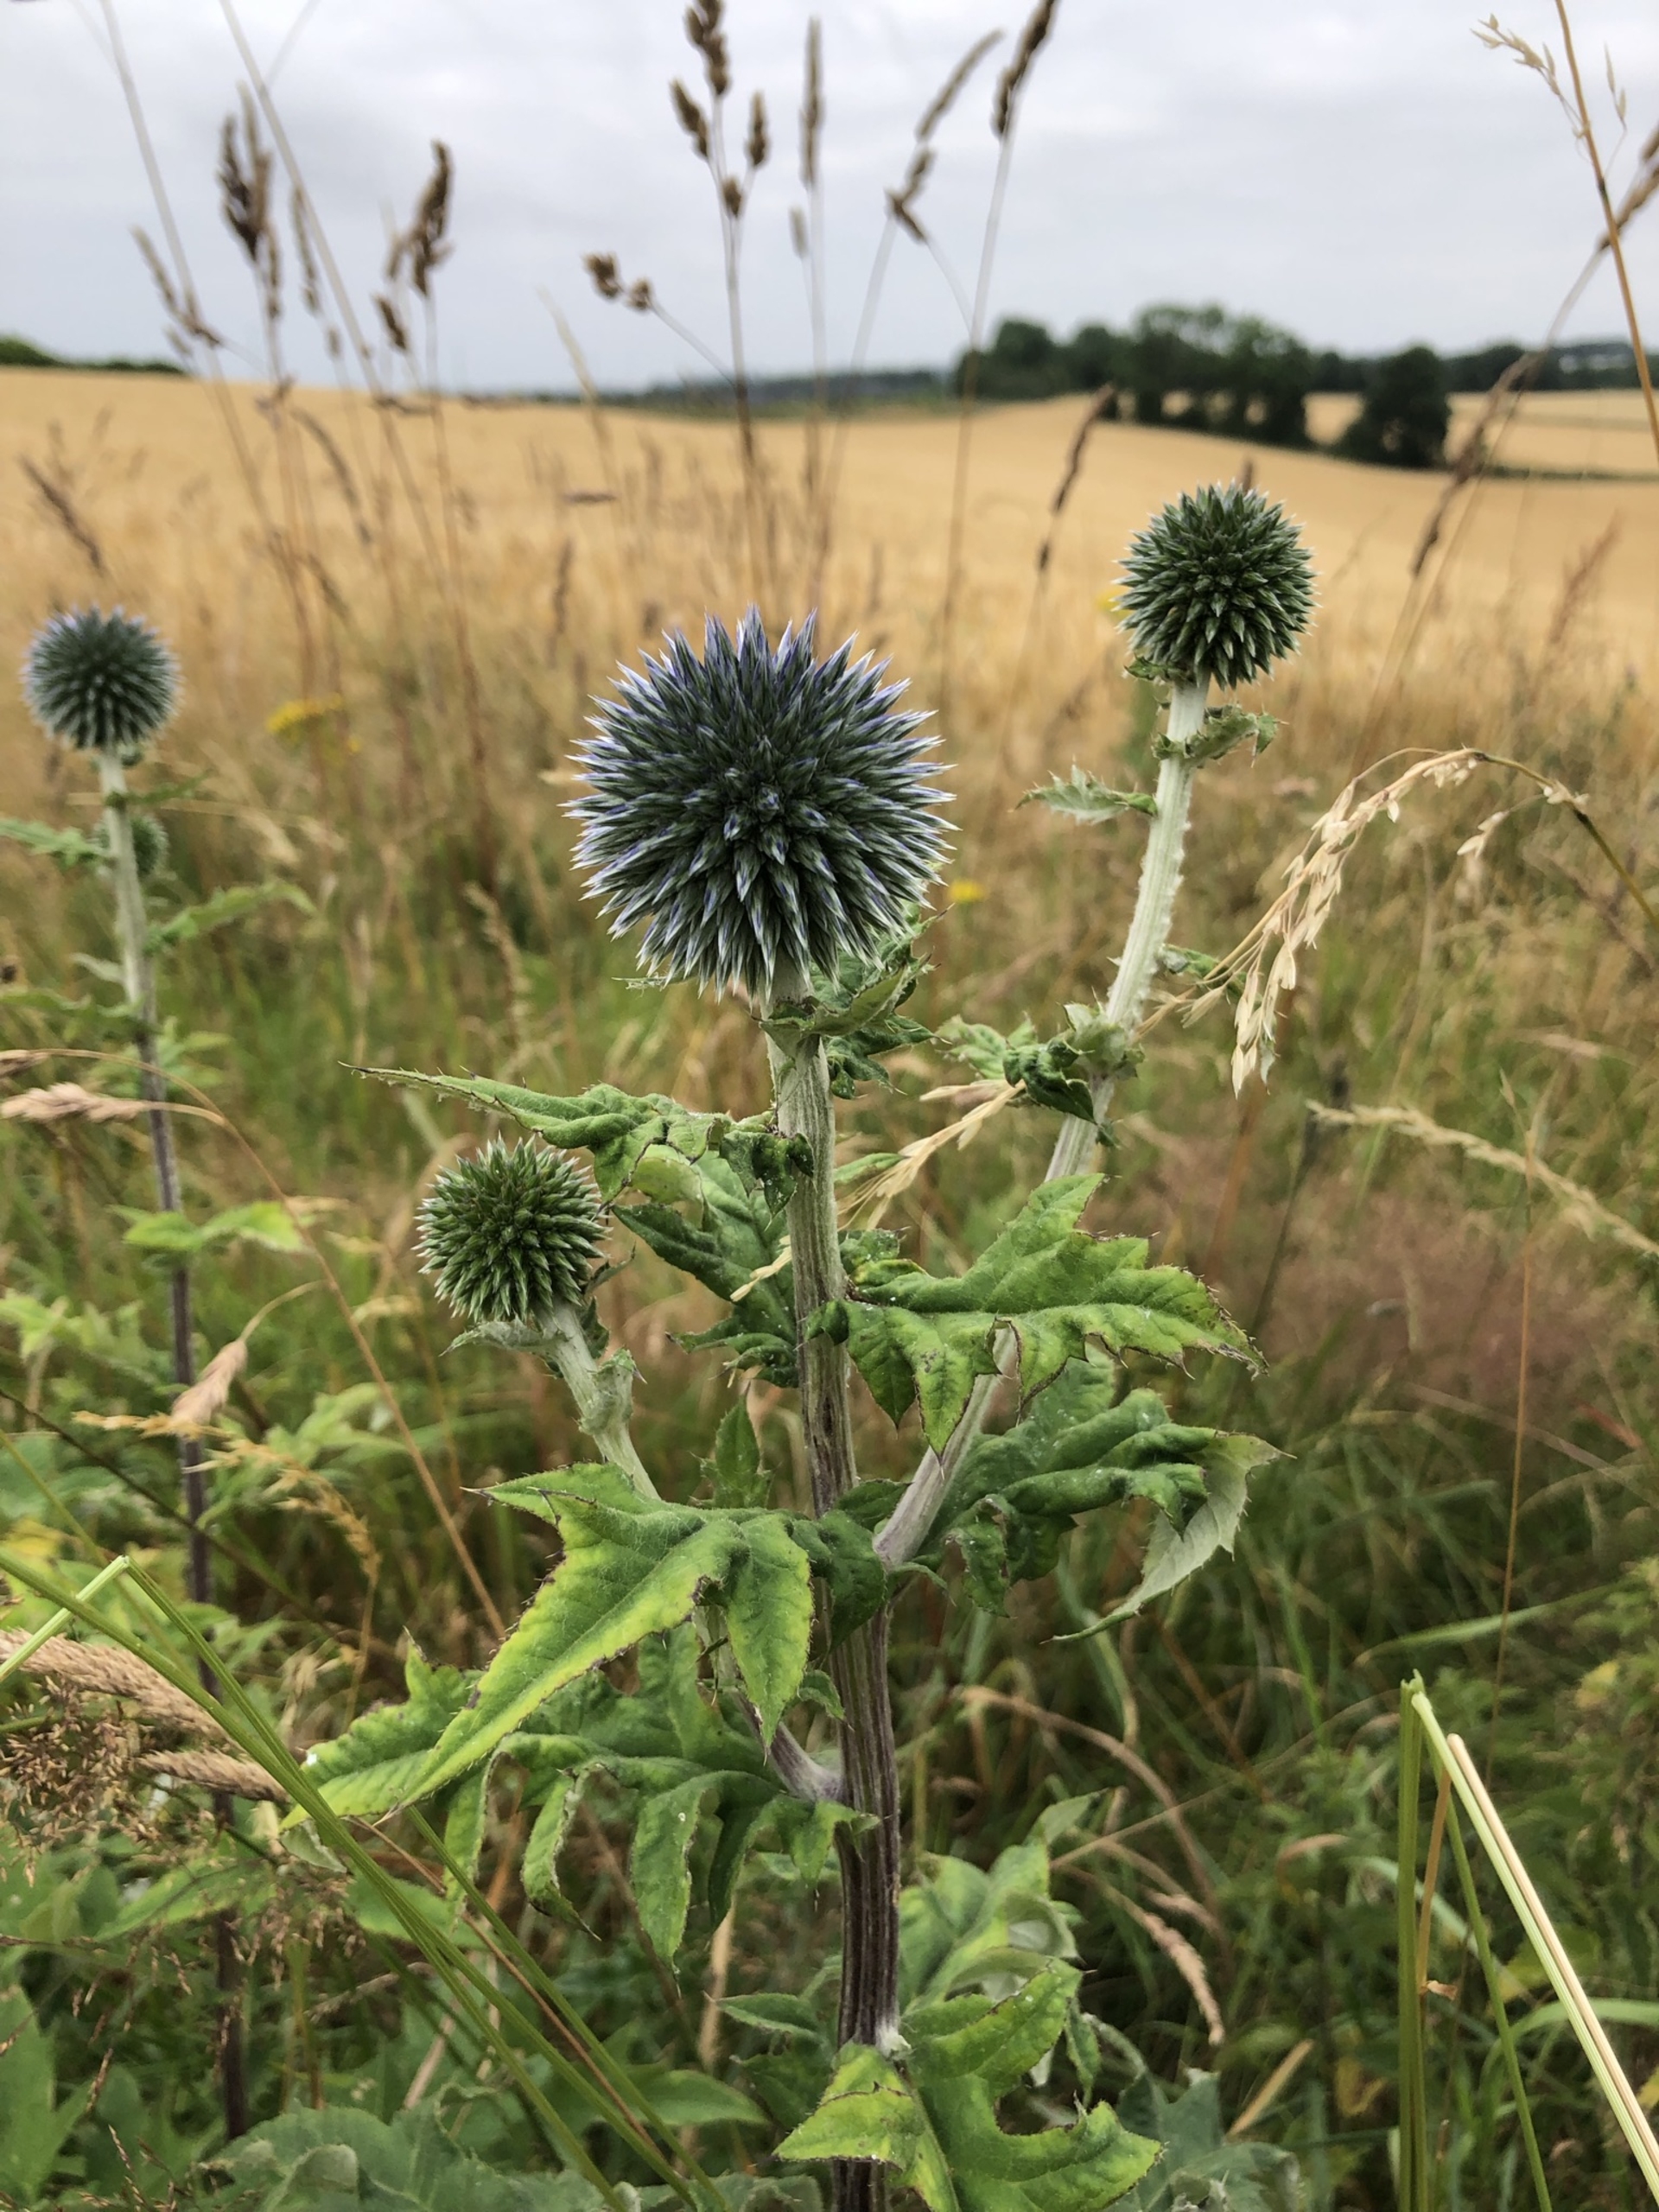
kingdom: Plantae
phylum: Tracheophyta
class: Magnoliopsida
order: Asterales
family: Asteraceae
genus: Echinops
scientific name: Echinops bannaticus
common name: Blå tidselkugle
